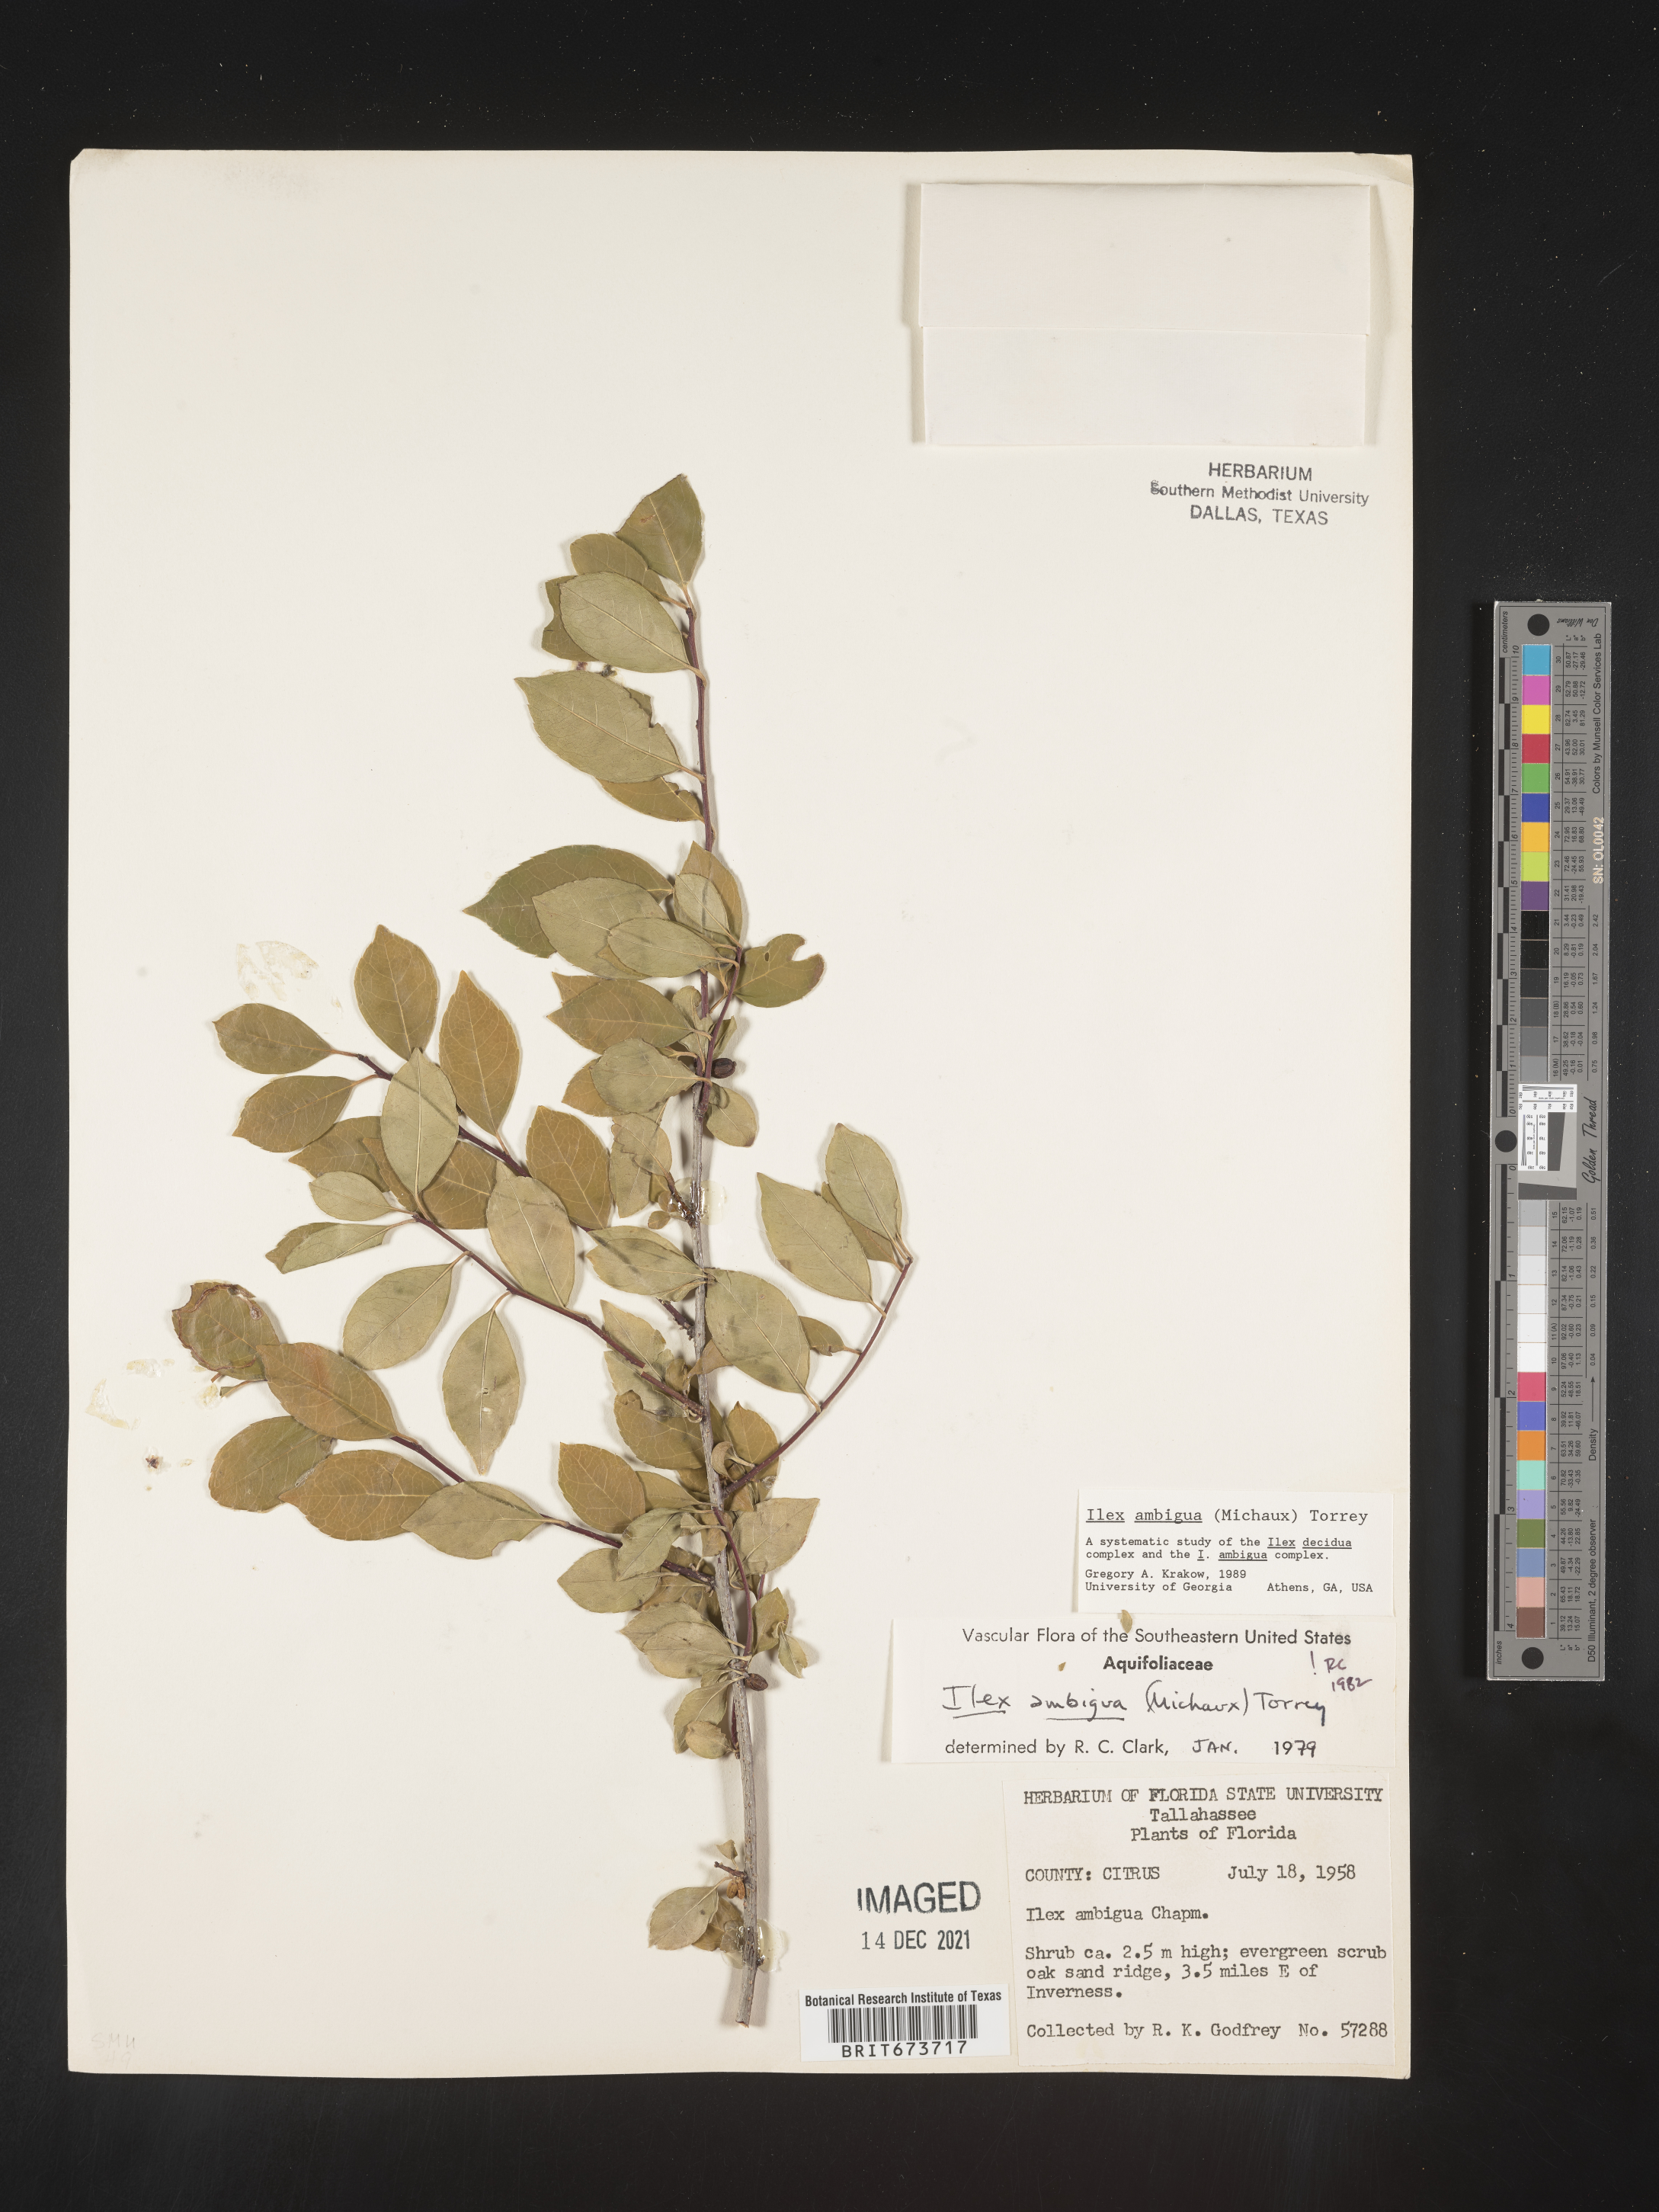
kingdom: Plantae
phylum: Tracheophyta
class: Magnoliopsida
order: Aquifoliales
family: Aquifoliaceae
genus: Ilex
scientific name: Ilex ambigua
